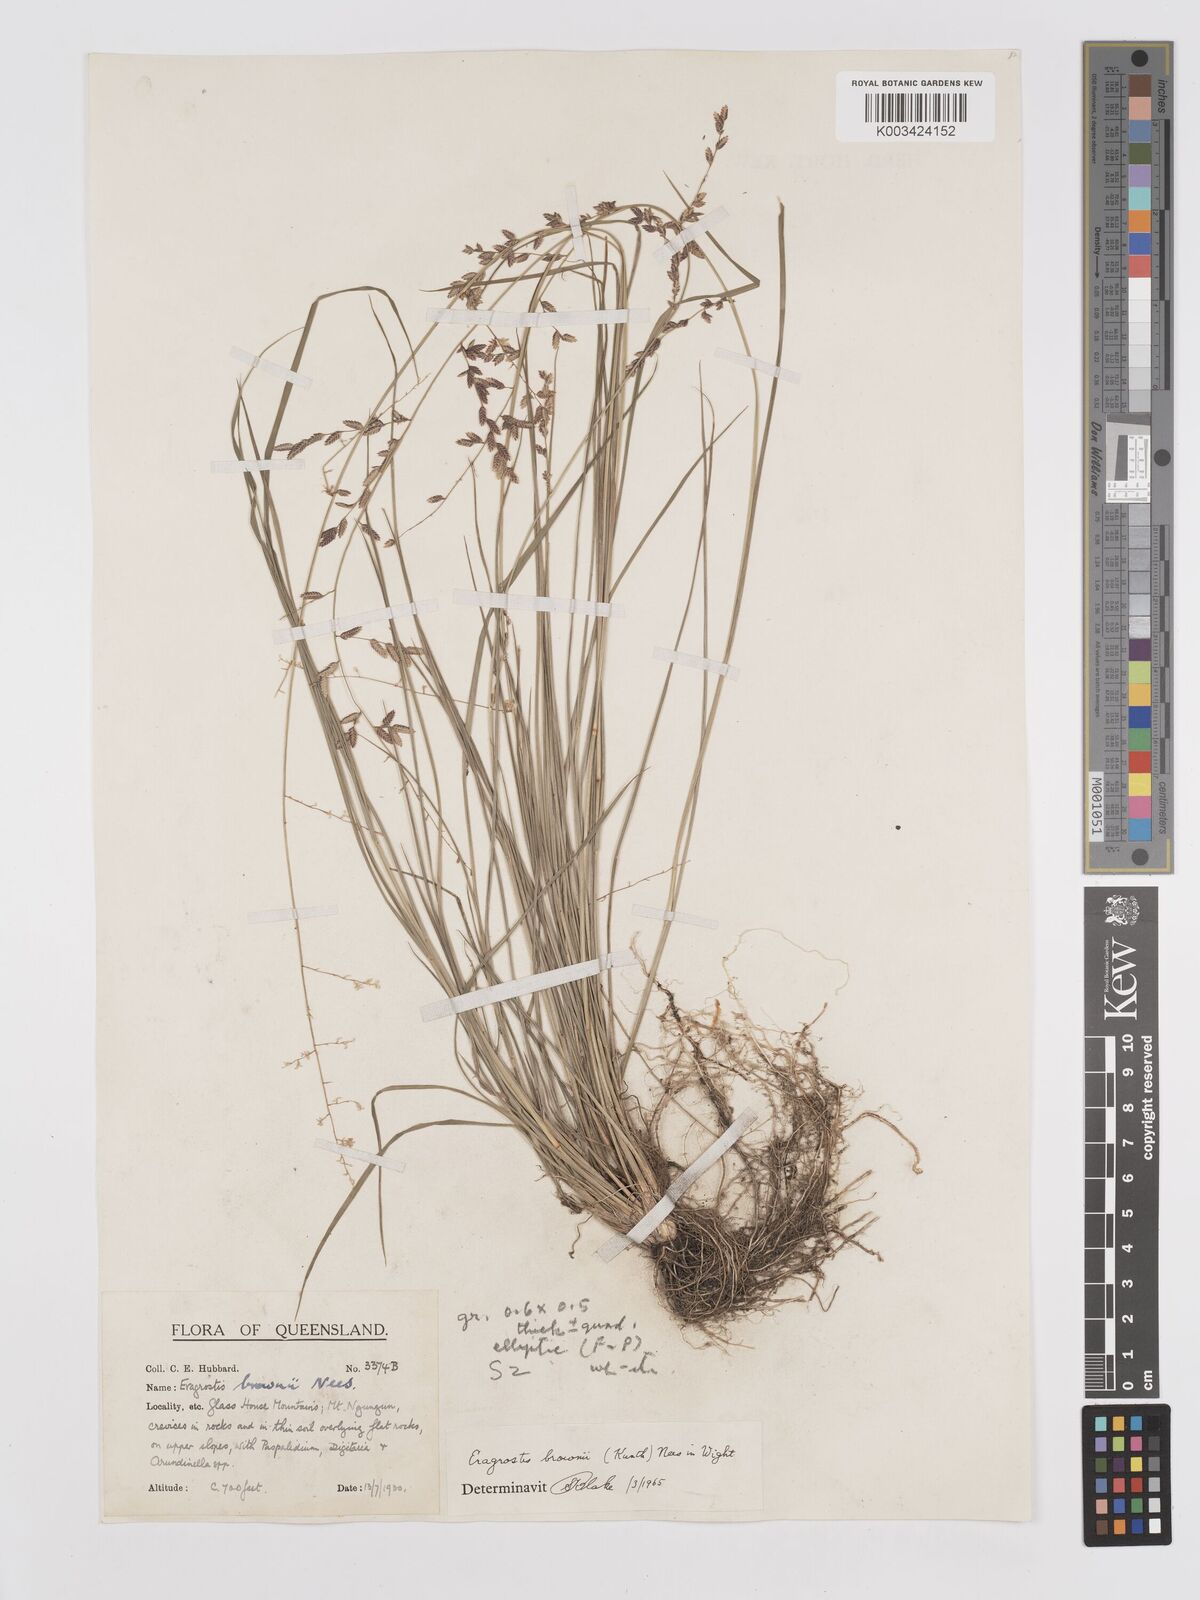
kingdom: Plantae
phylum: Tracheophyta
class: Liliopsida
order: Poales
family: Poaceae
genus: Eragrostis
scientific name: Eragrostis brownii
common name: Lovegrass
